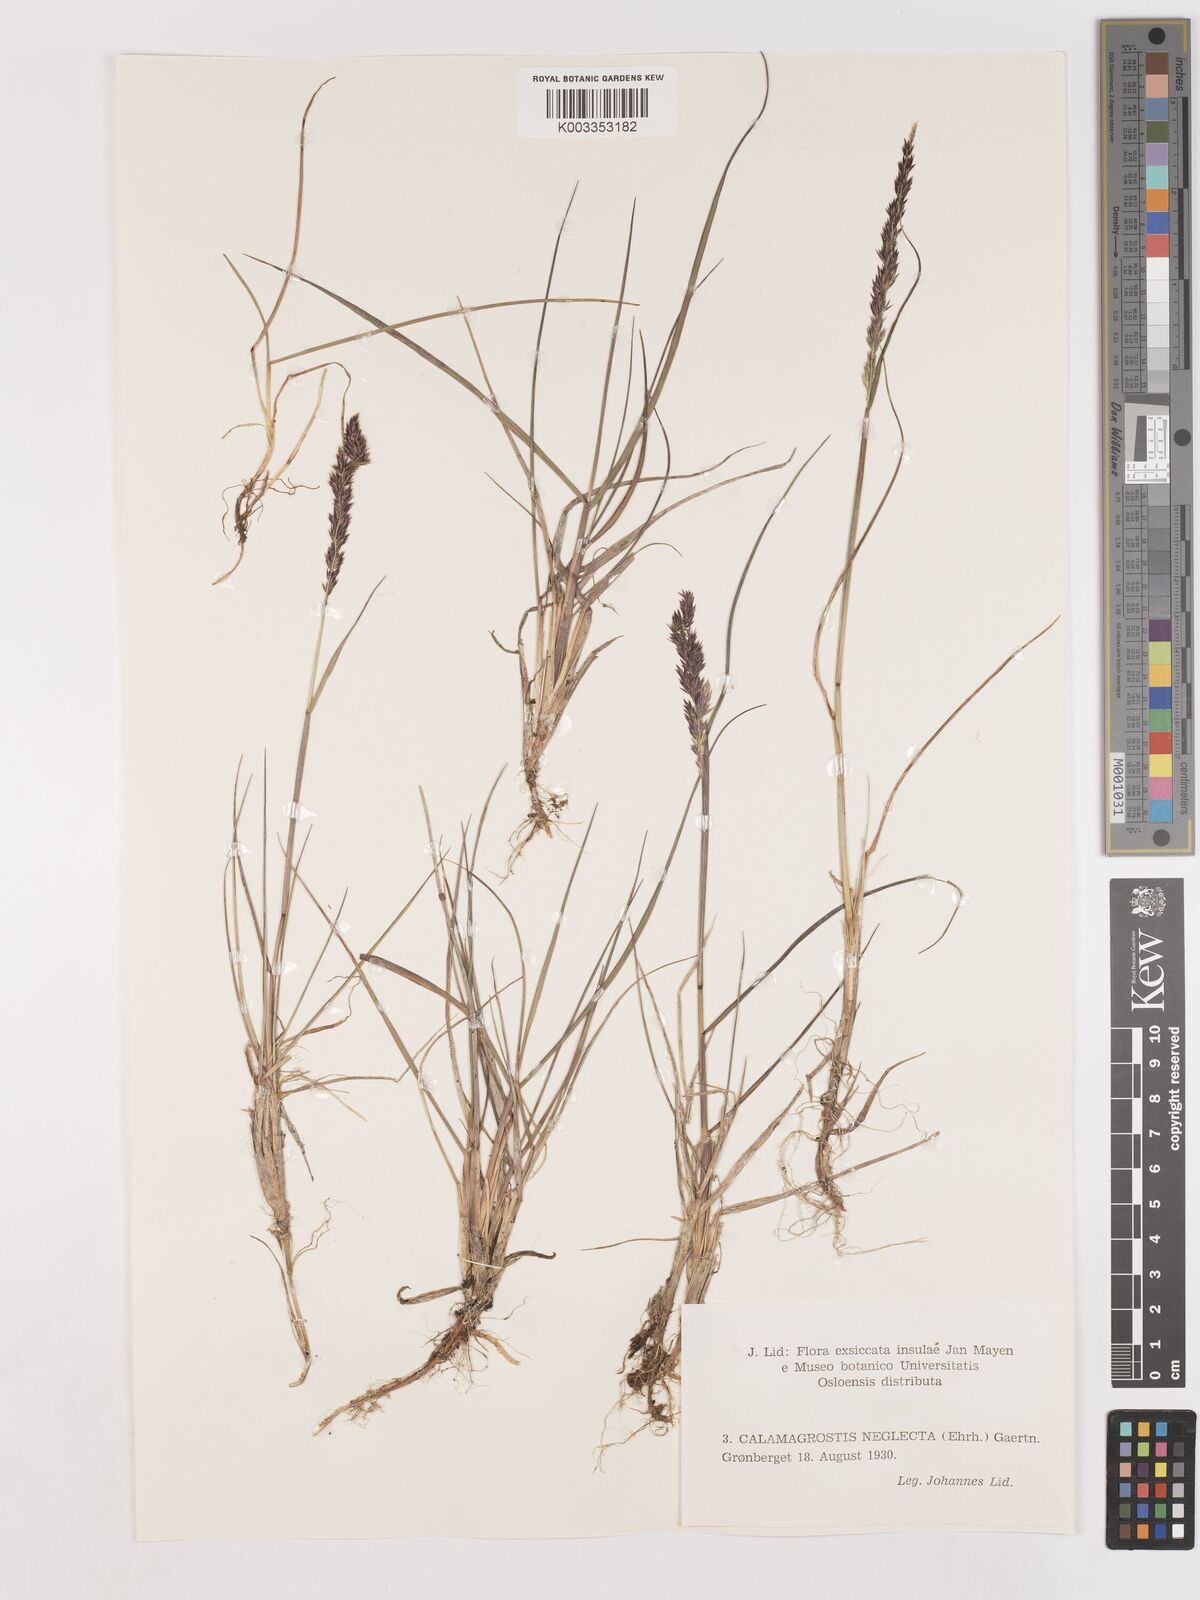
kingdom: Plantae
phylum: Tracheophyta
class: Liliopsida
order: Poales
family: Poaceae
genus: Cinnagrostis
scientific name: Cinnagrostis recta
